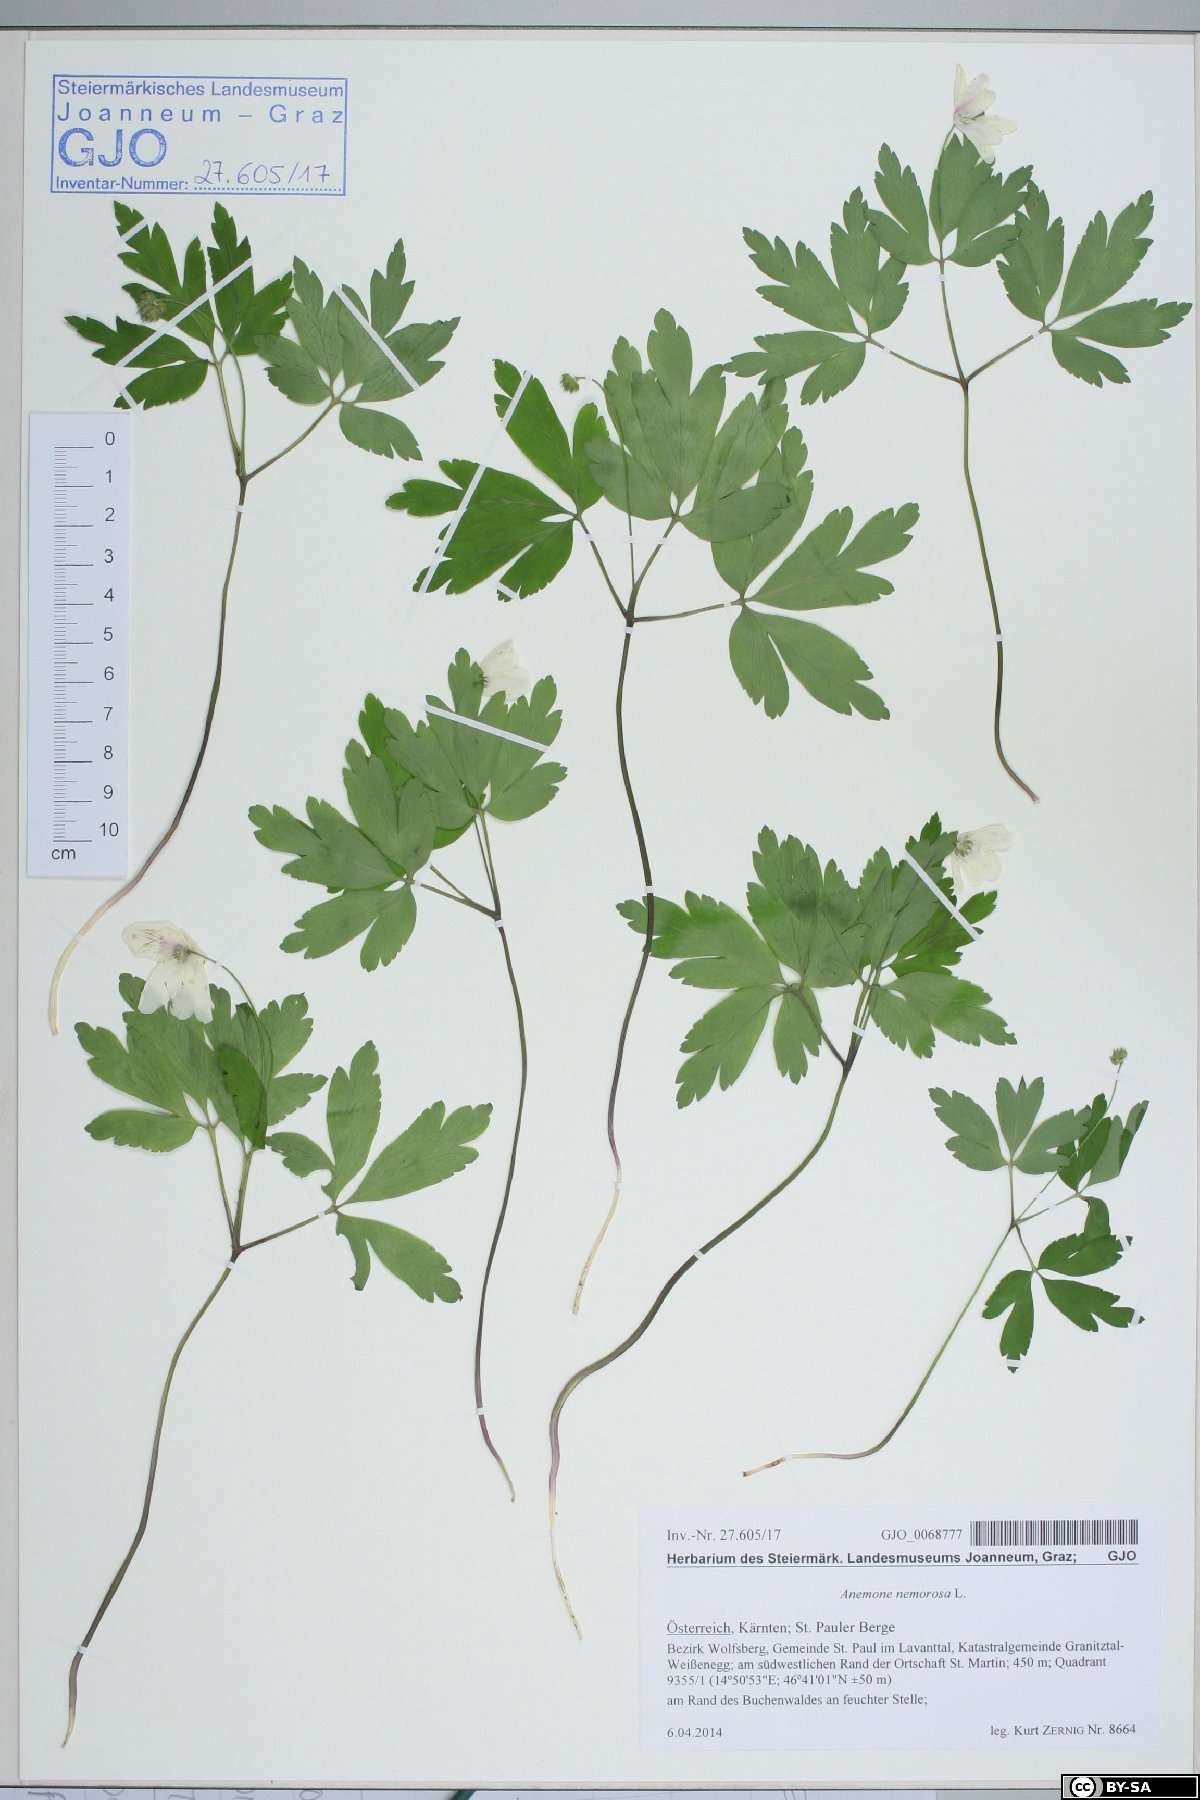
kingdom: Plantae
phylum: Tracheophyta
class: Magnoliopsida
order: Ranunculales
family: Ranunculaceae
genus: Anemone
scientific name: Anemone nemorosa
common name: Wood anemone
